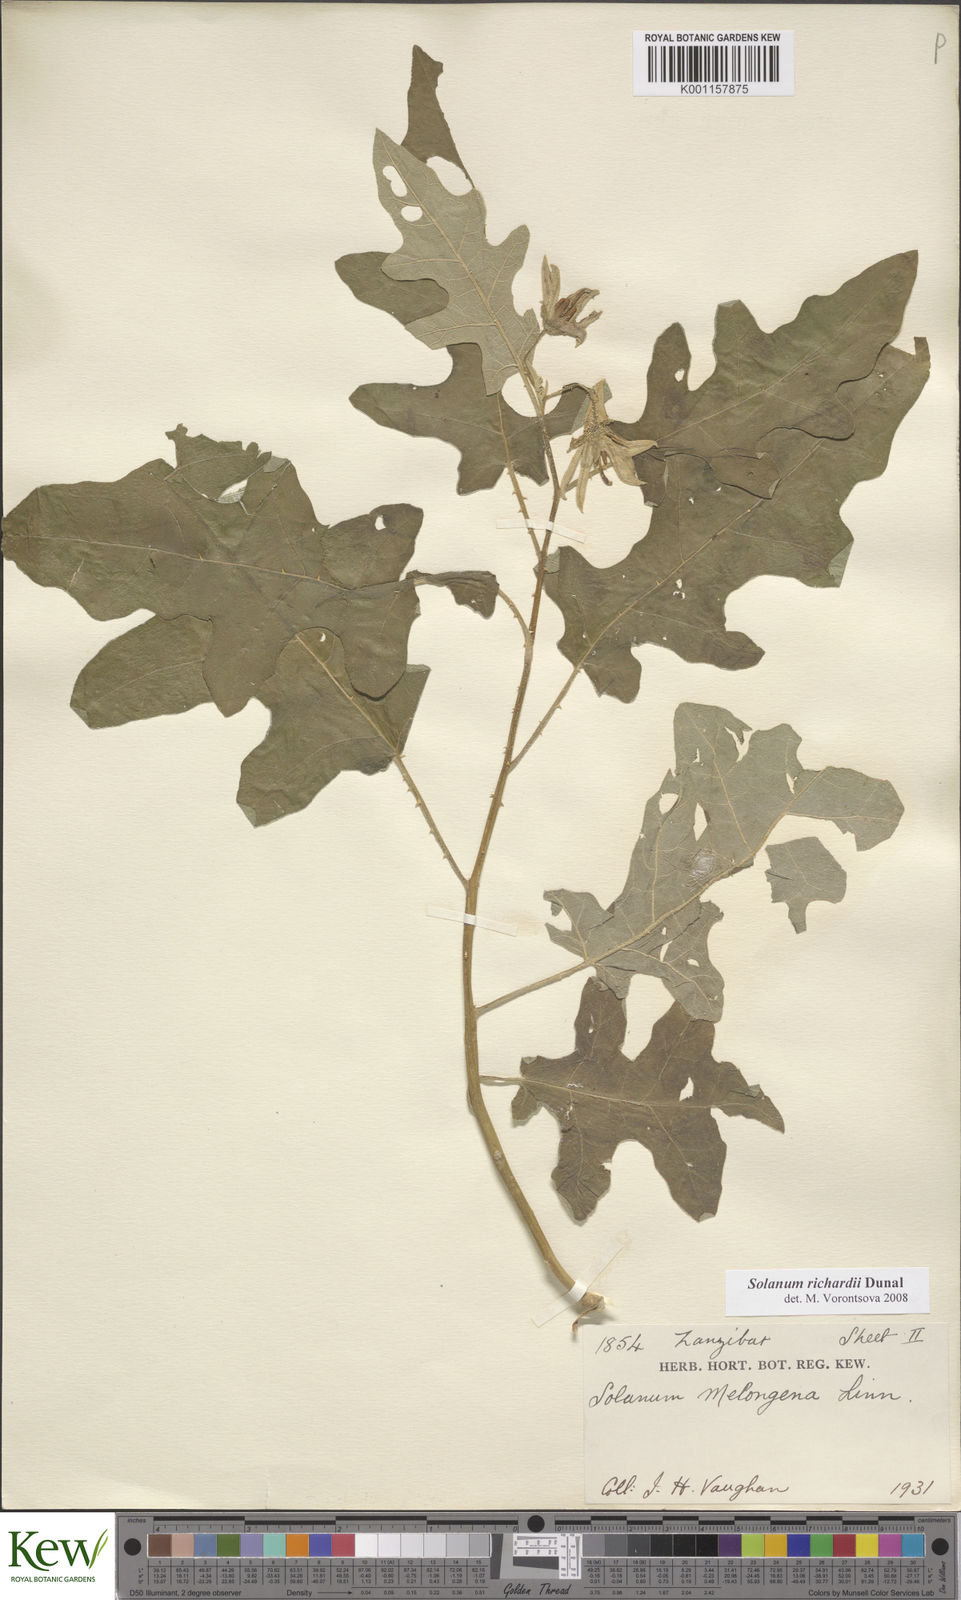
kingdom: Plantae
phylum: Tracheophyta
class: Magnoliopsida
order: Solanales
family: Solanaceae
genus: Solanum
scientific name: Solanum richardii
